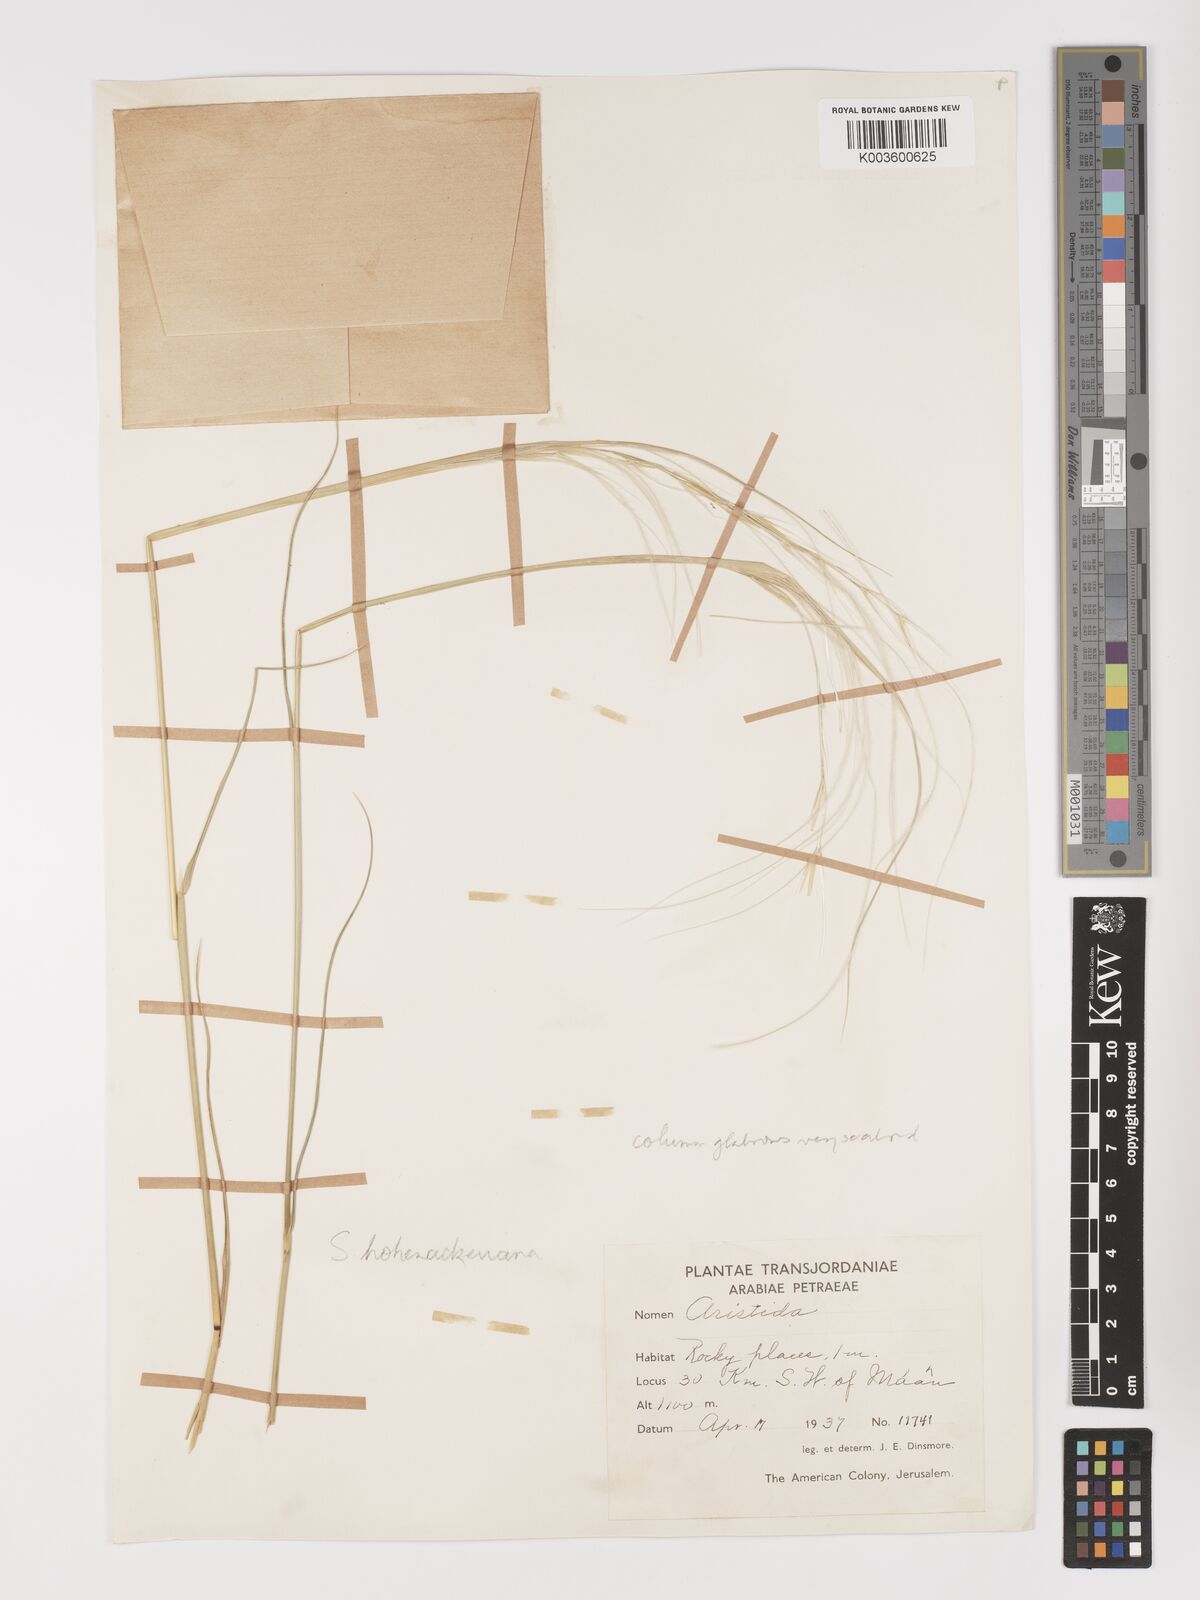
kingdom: Plantae
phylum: Tracheophyta
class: Liliopsida
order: Poales
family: Poaceae
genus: Stipa
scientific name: Stipa hohenackeriana
